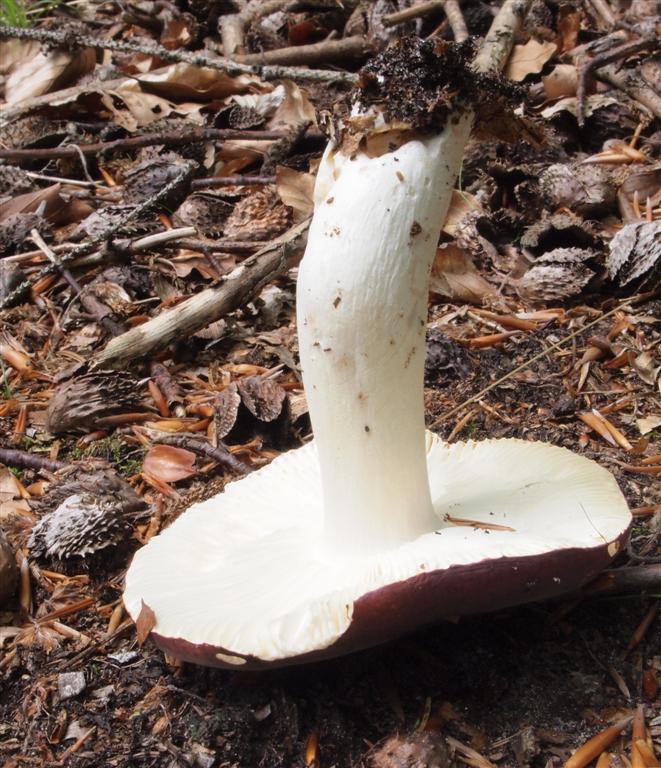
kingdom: Fungi
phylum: Basidiomycota
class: Agaricomycetes
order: Russulales
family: Russulaceae
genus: Russula
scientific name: Russula atropurpurea
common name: purpurbroget skørhat
